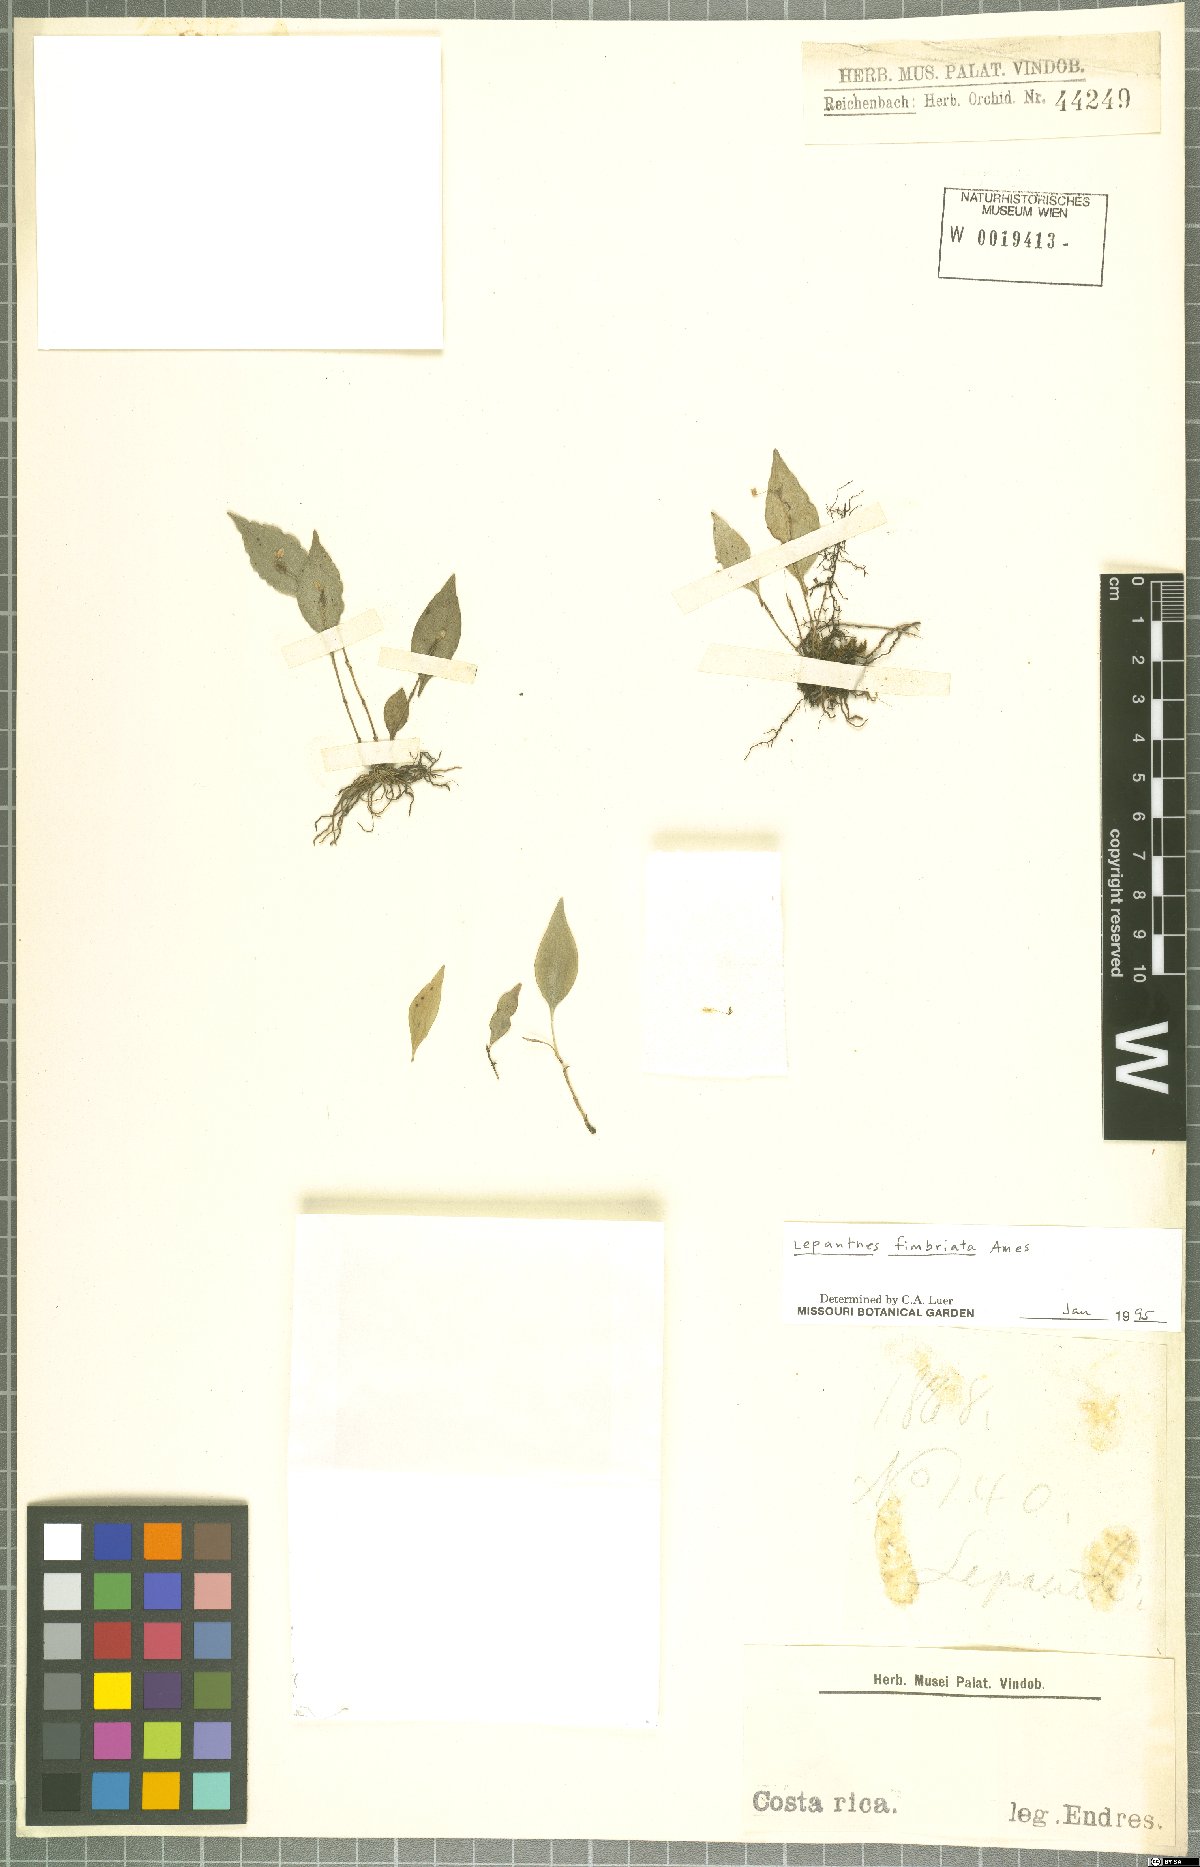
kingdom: Plantae
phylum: Tracheophyta
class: Liliopsida
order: Asparagales
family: Orchidaceae
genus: Lepanthes
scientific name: Lepanthes fimbriata
